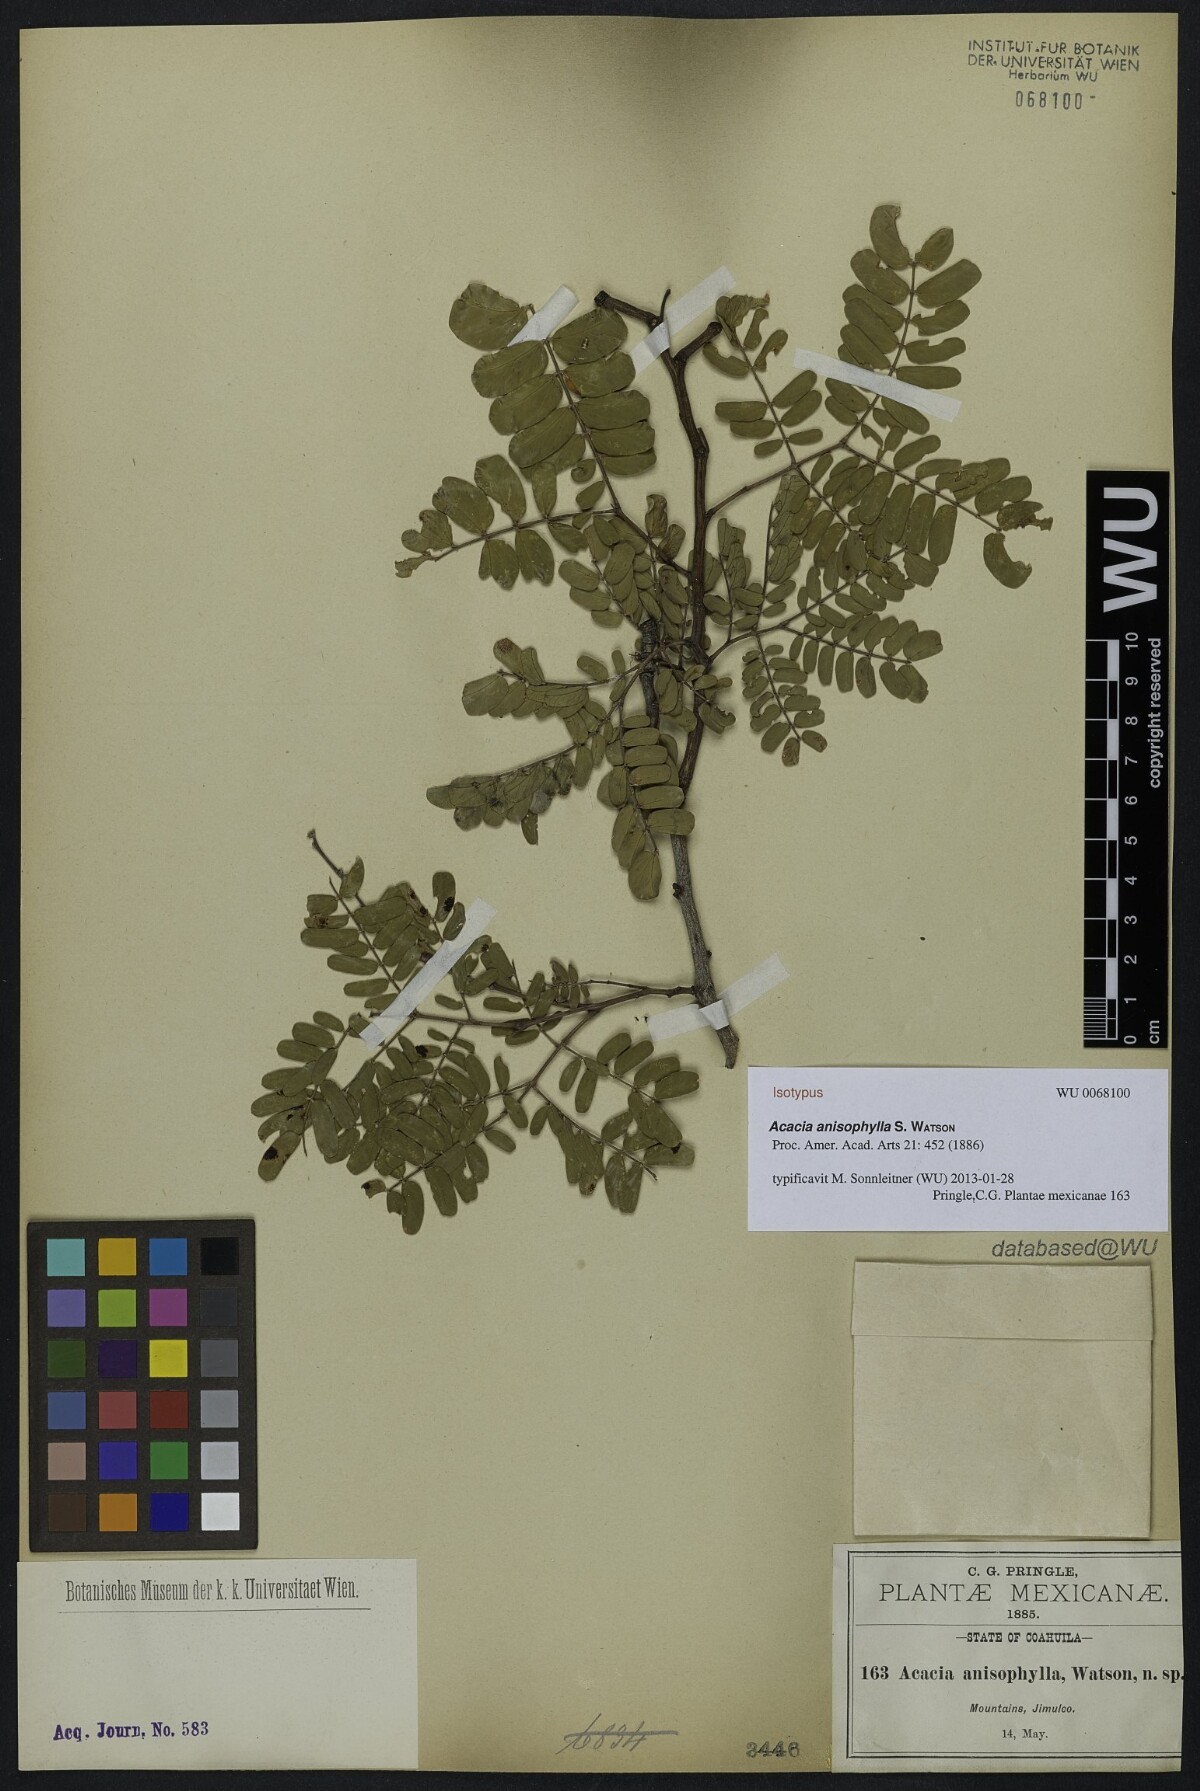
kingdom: Plantae
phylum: Tracheophyta
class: Magnoliopsida
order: Fabales
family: Fabaceae
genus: Senegalia
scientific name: Senegalia anisophylla
